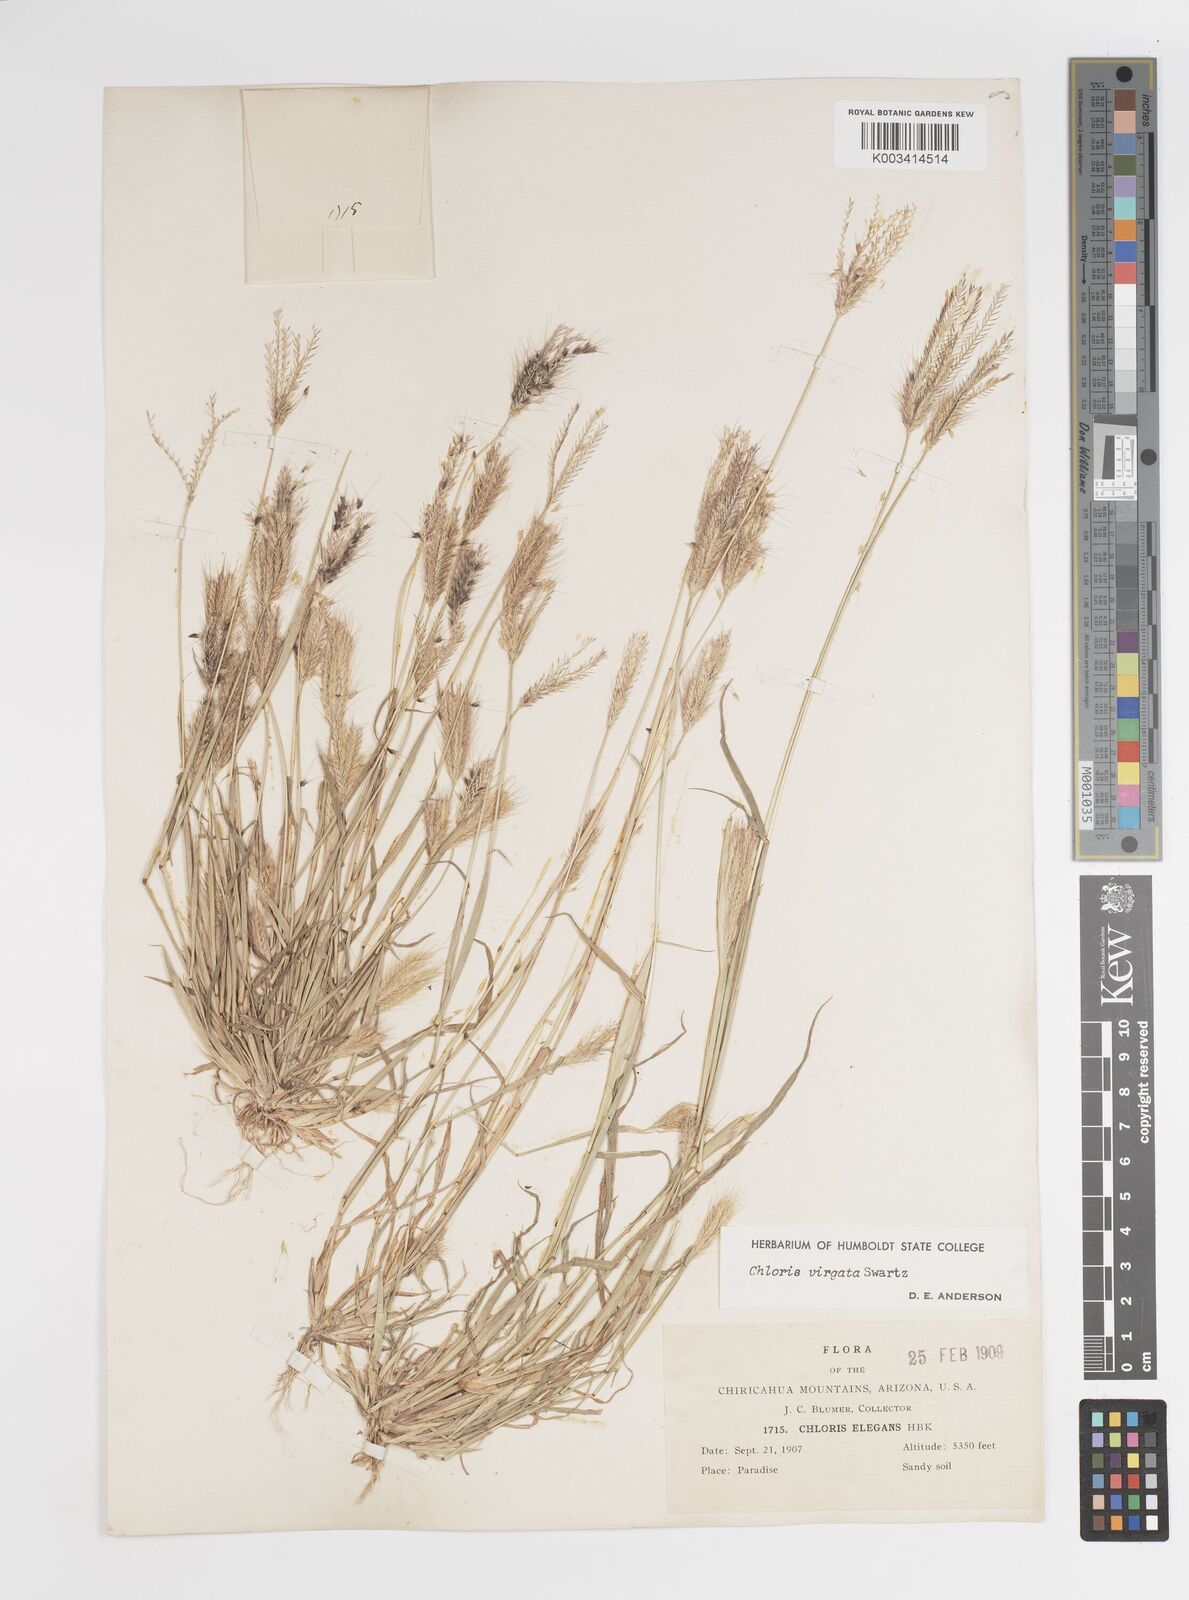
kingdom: Plantae
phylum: Tracheophyta
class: Liliopsida
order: Poales
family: Poaceae
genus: Chloris
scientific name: Chloris virgata
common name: Feathery rhodes-grass
